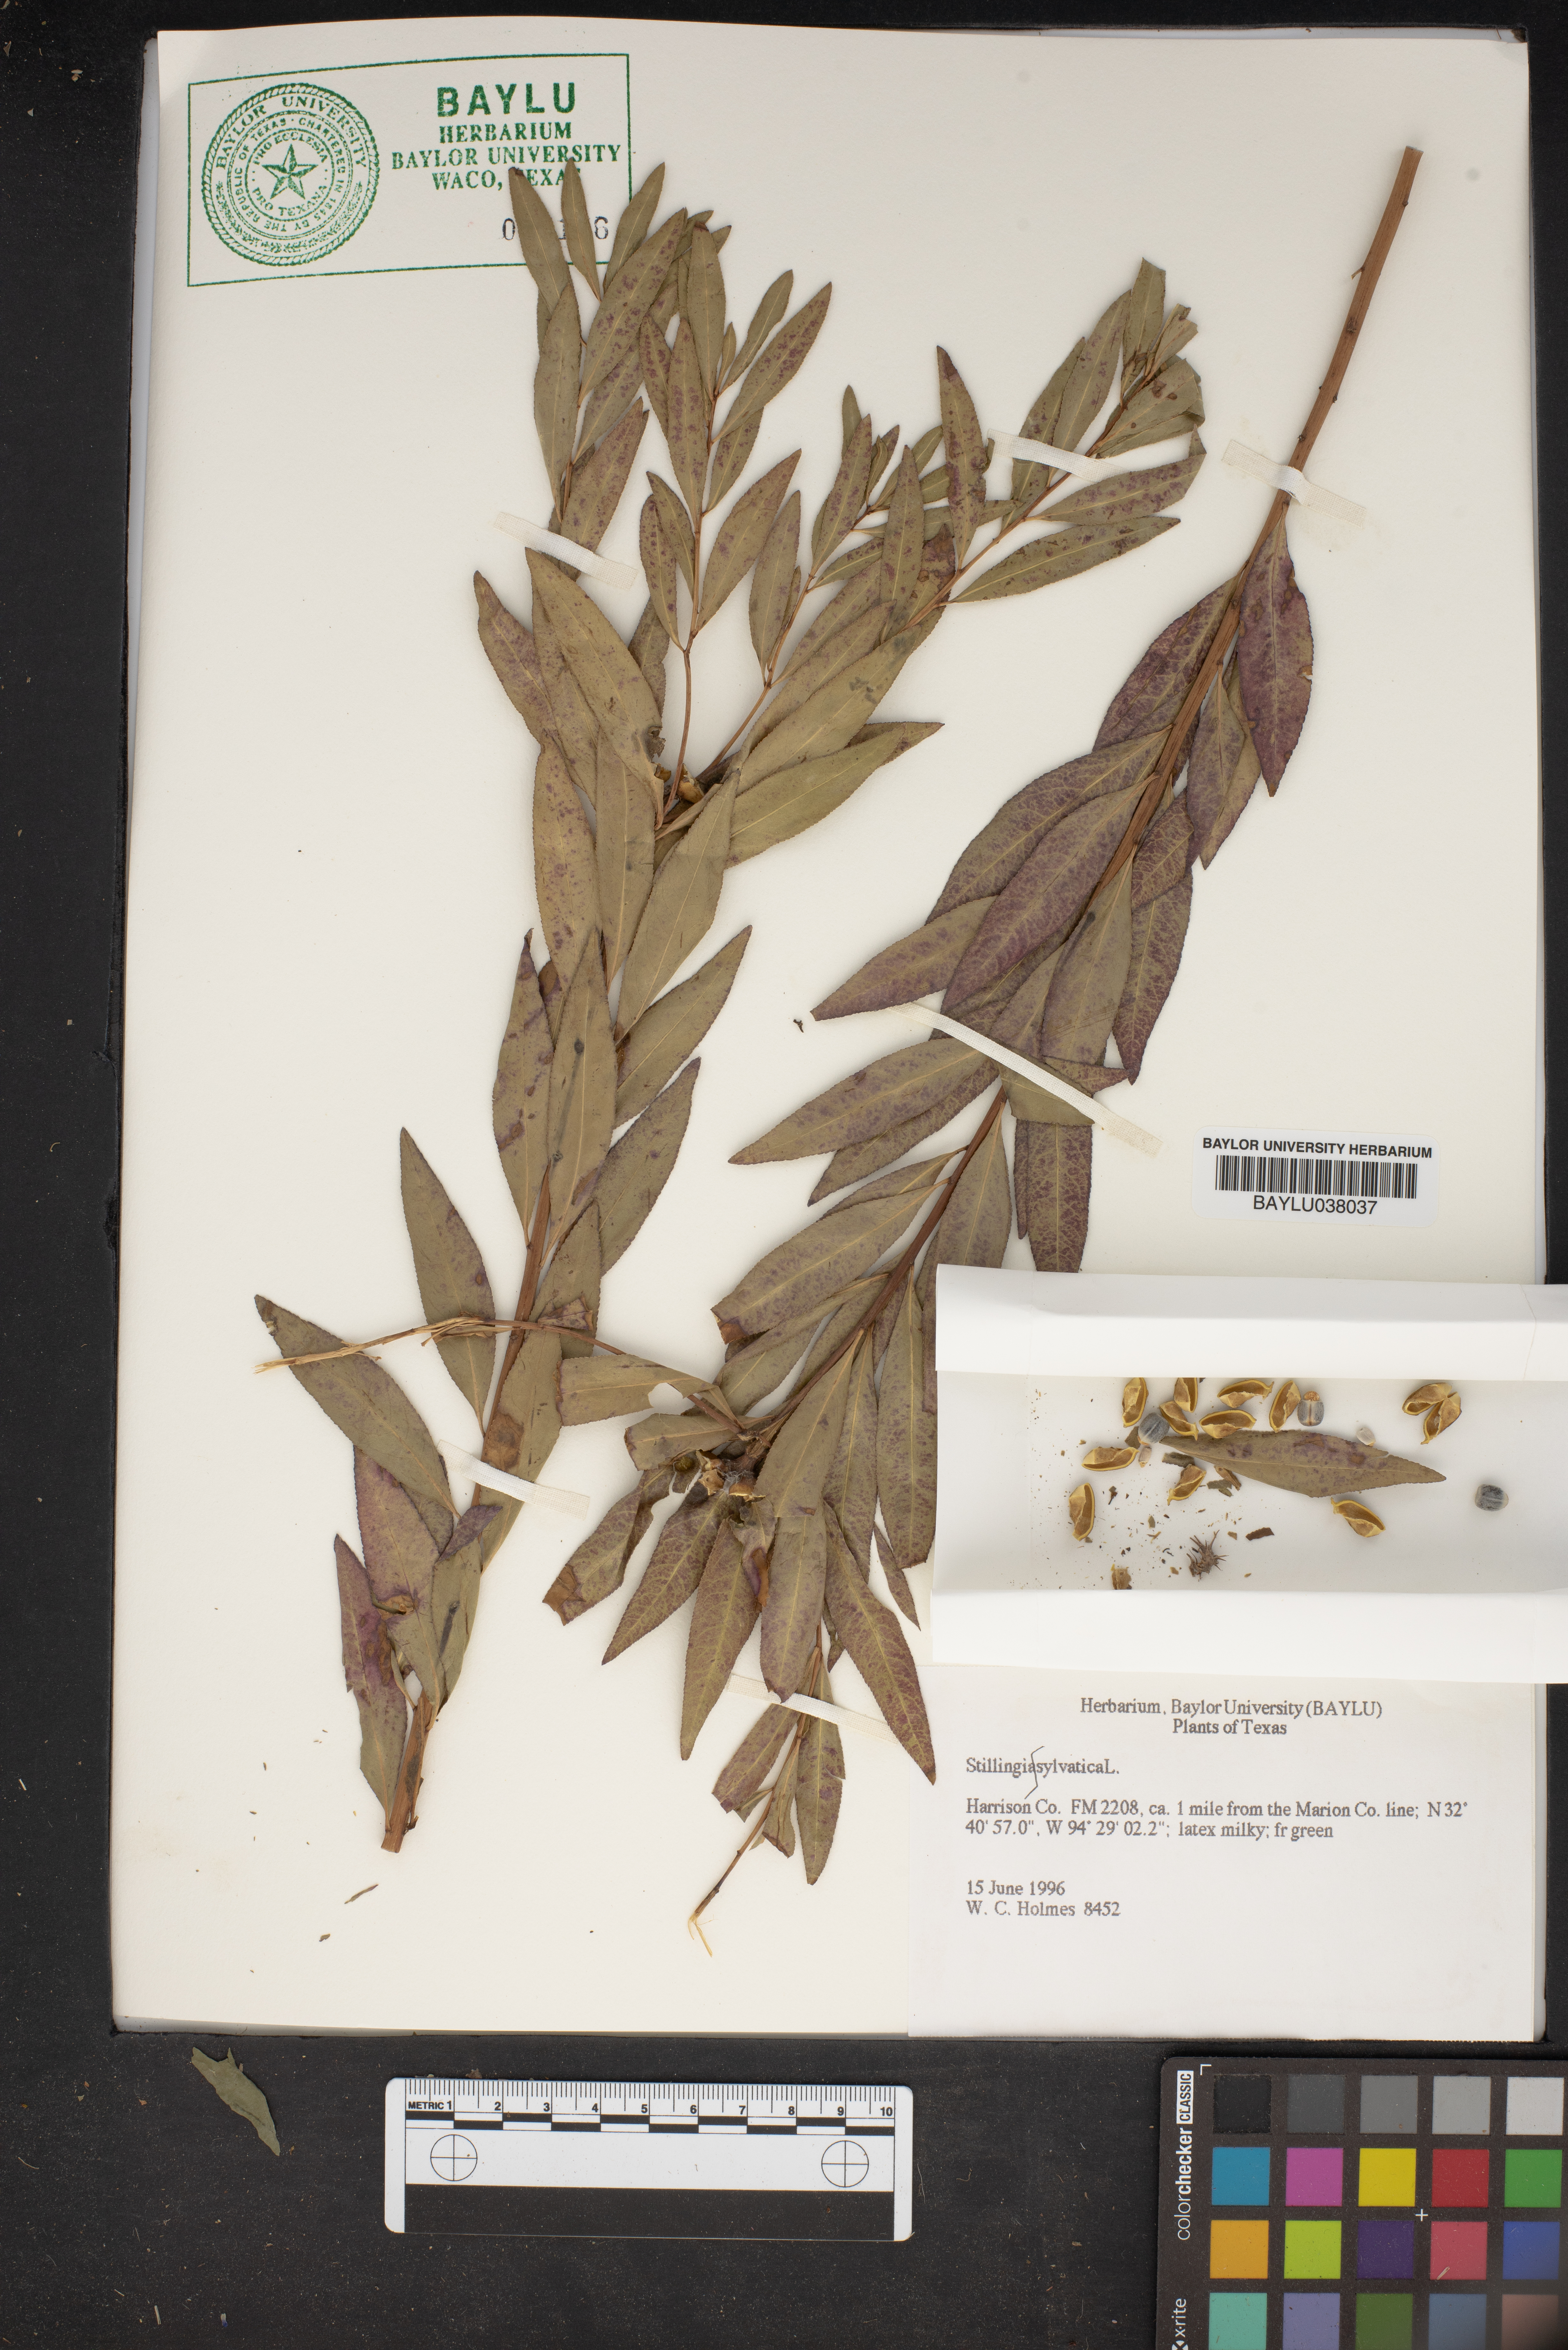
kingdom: Plantae
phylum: Tracheophyta
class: Magnoliopsida
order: Malpighiales
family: Euphorbiaceae
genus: Stillingia
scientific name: Stillingia sylvatica
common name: Queen's-delight
